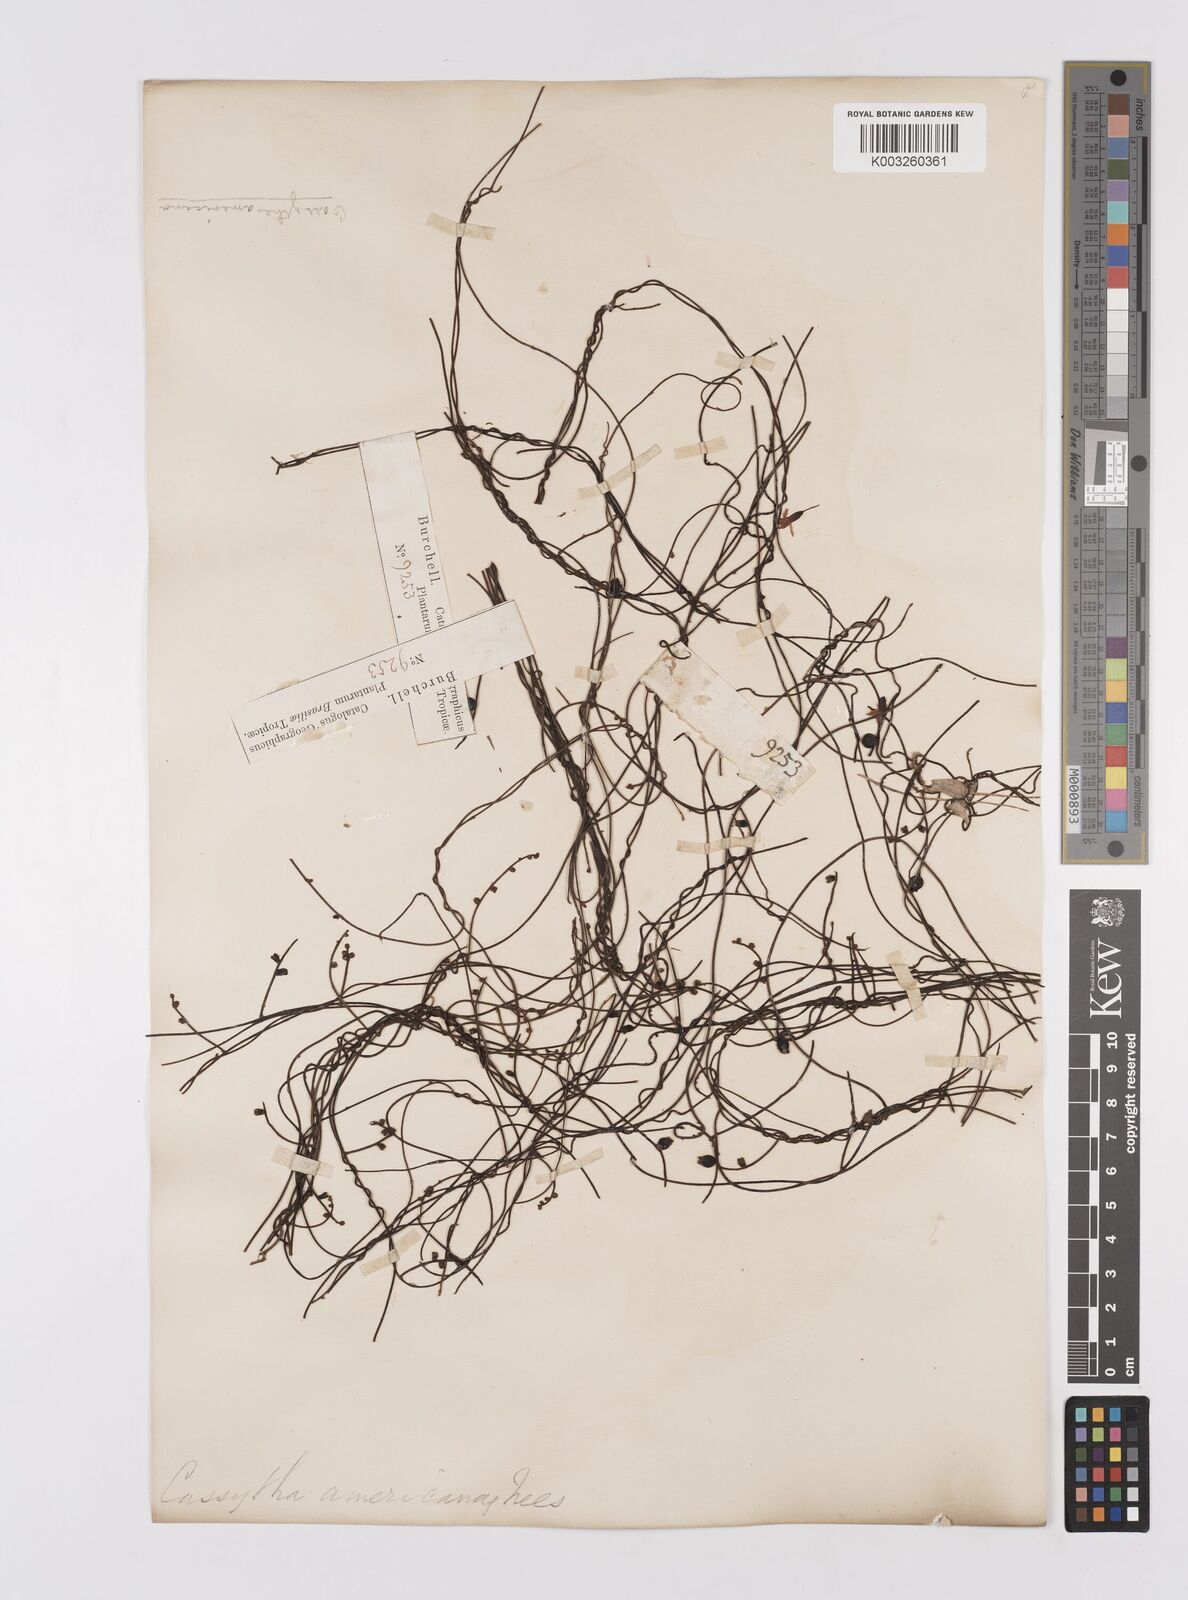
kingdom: Plantae
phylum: Tracheophyta
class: Magnoliopsida
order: Laurales
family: Lauraceae
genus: Cassytha
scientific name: Cassytha filiformis
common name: Dodder-laurel
